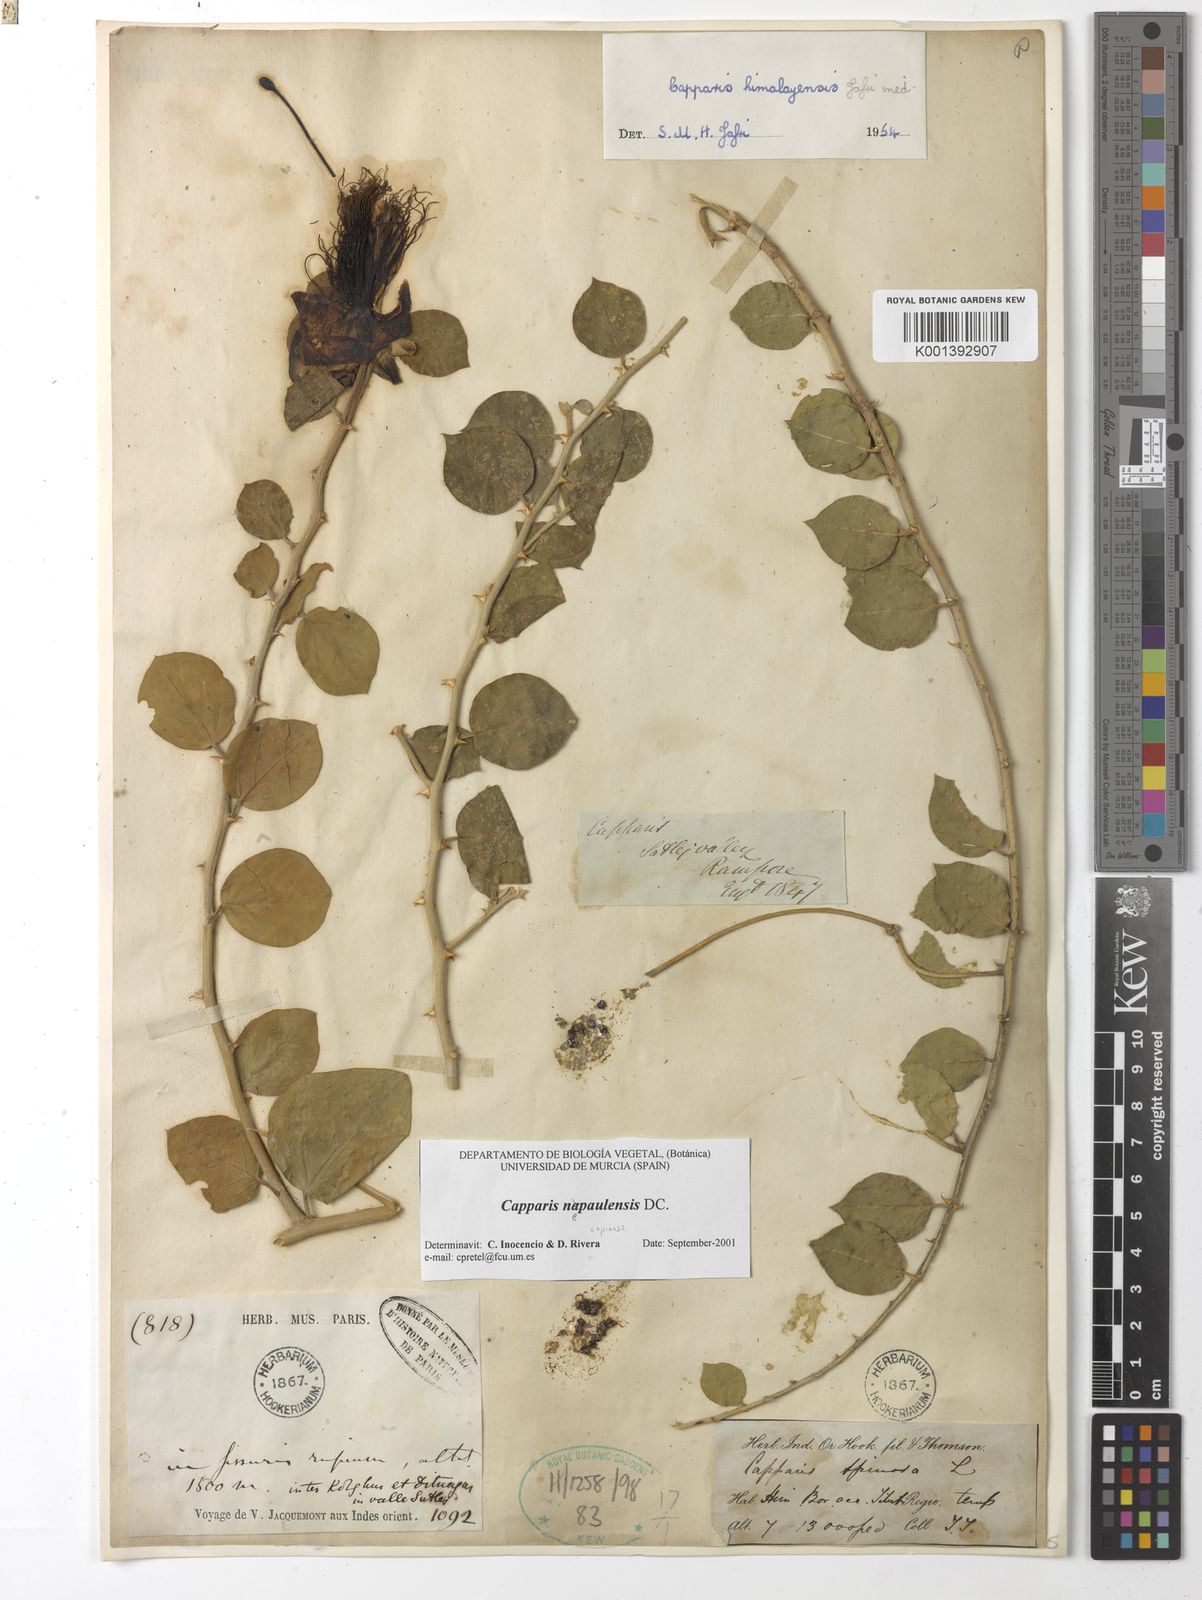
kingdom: Plantae
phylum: Tracheophyta
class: Magnoliopsida
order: Brassicales
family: Capparaceae
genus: Capparis
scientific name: Capparis spinosa
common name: Caper
